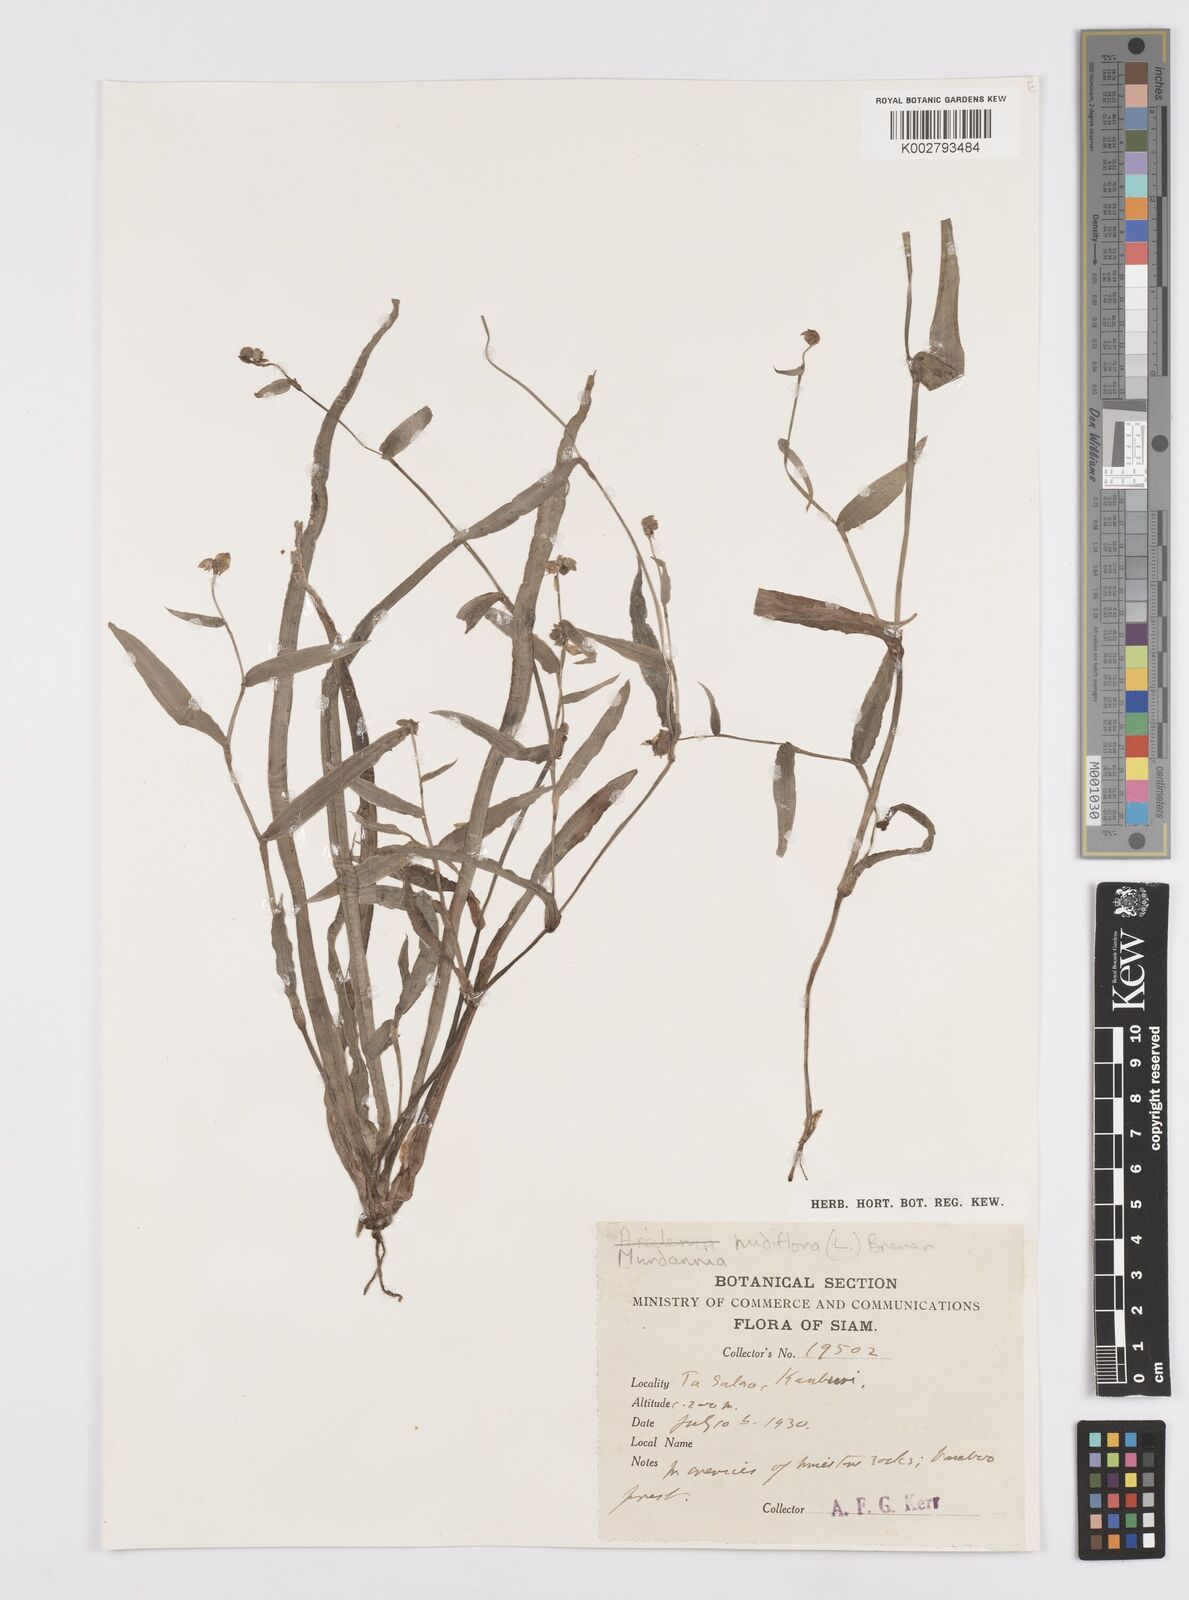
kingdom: Plantae
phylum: Tracheophyta
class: Liliopsida
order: Commelinales
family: Commelinaceae
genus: Murdannia
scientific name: Murdannia nudiflora
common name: Nakedstem dewflower
